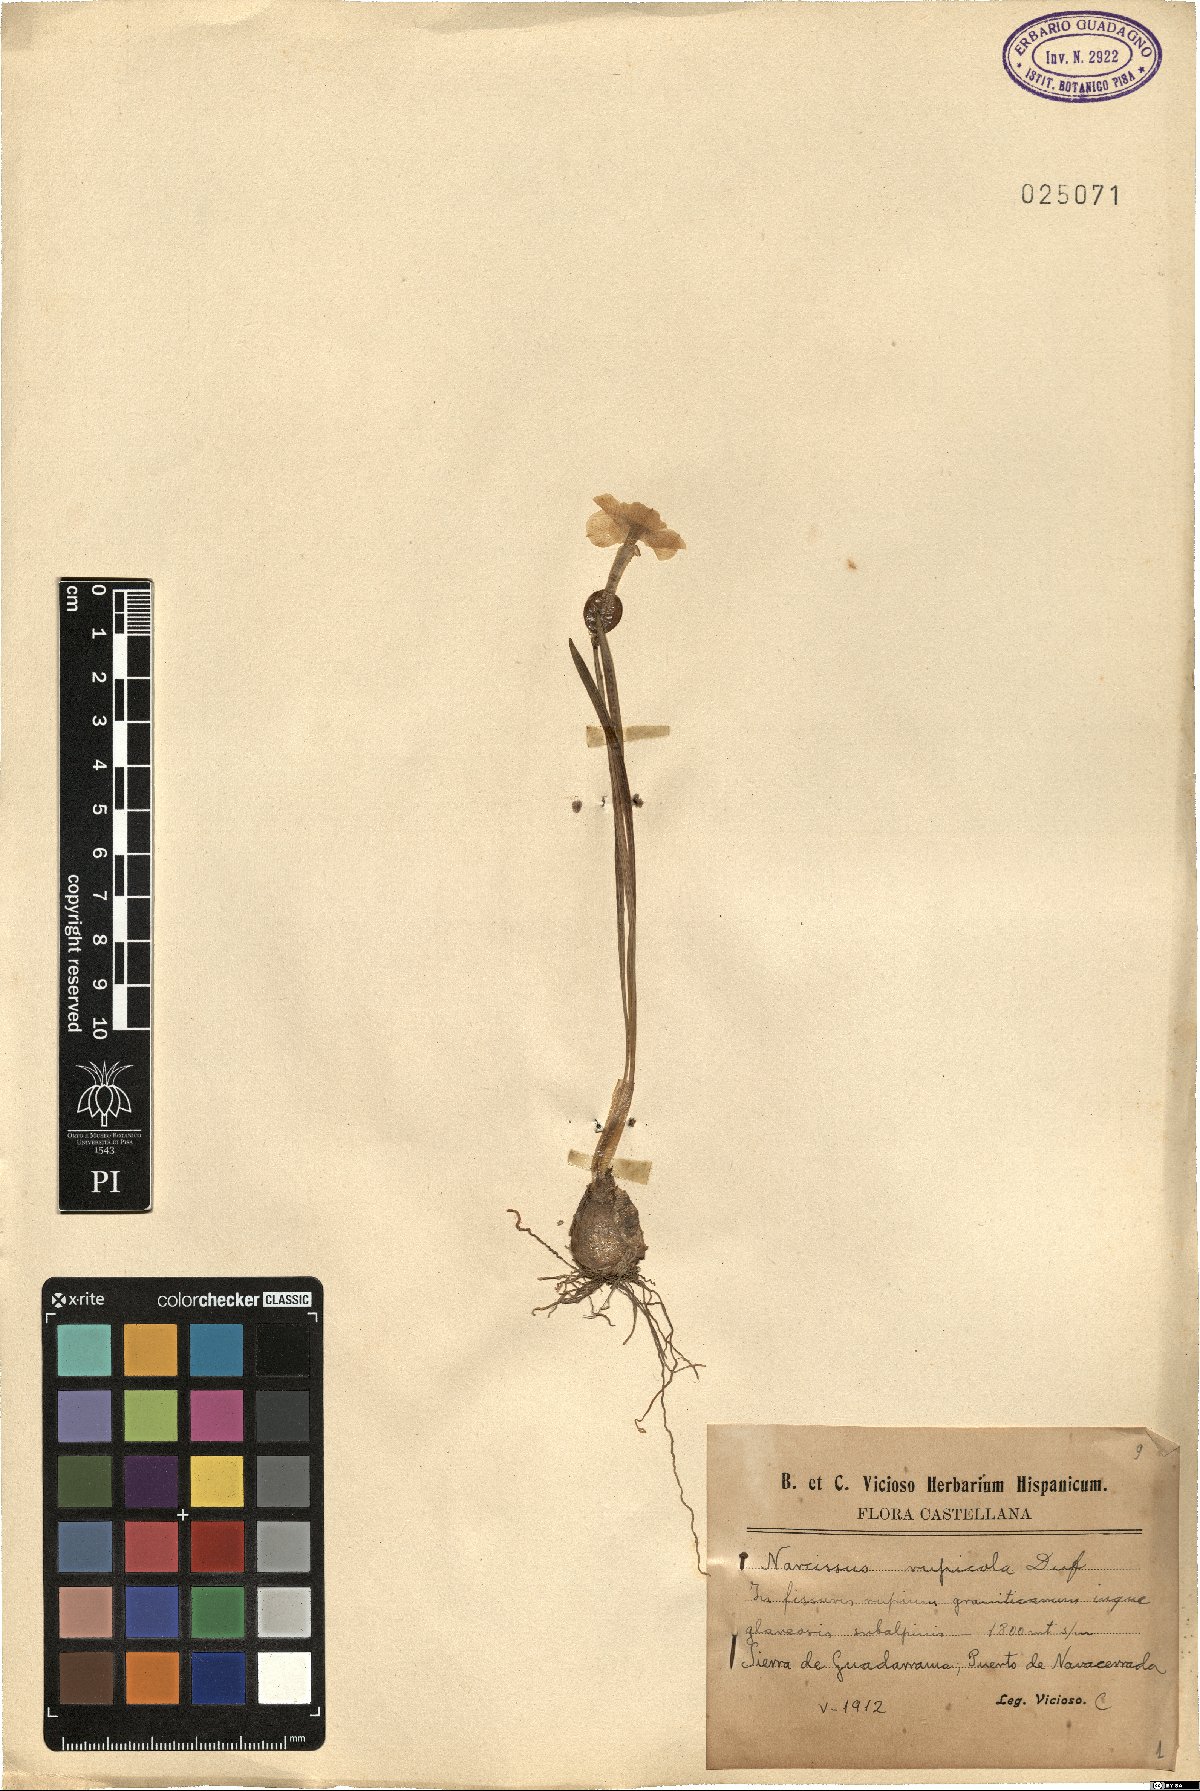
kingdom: Plantae
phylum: Tracheophyta
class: Liliopsida
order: Asparagales
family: Amaryllidaceae
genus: Narcissus
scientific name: Narcissus rupicola
